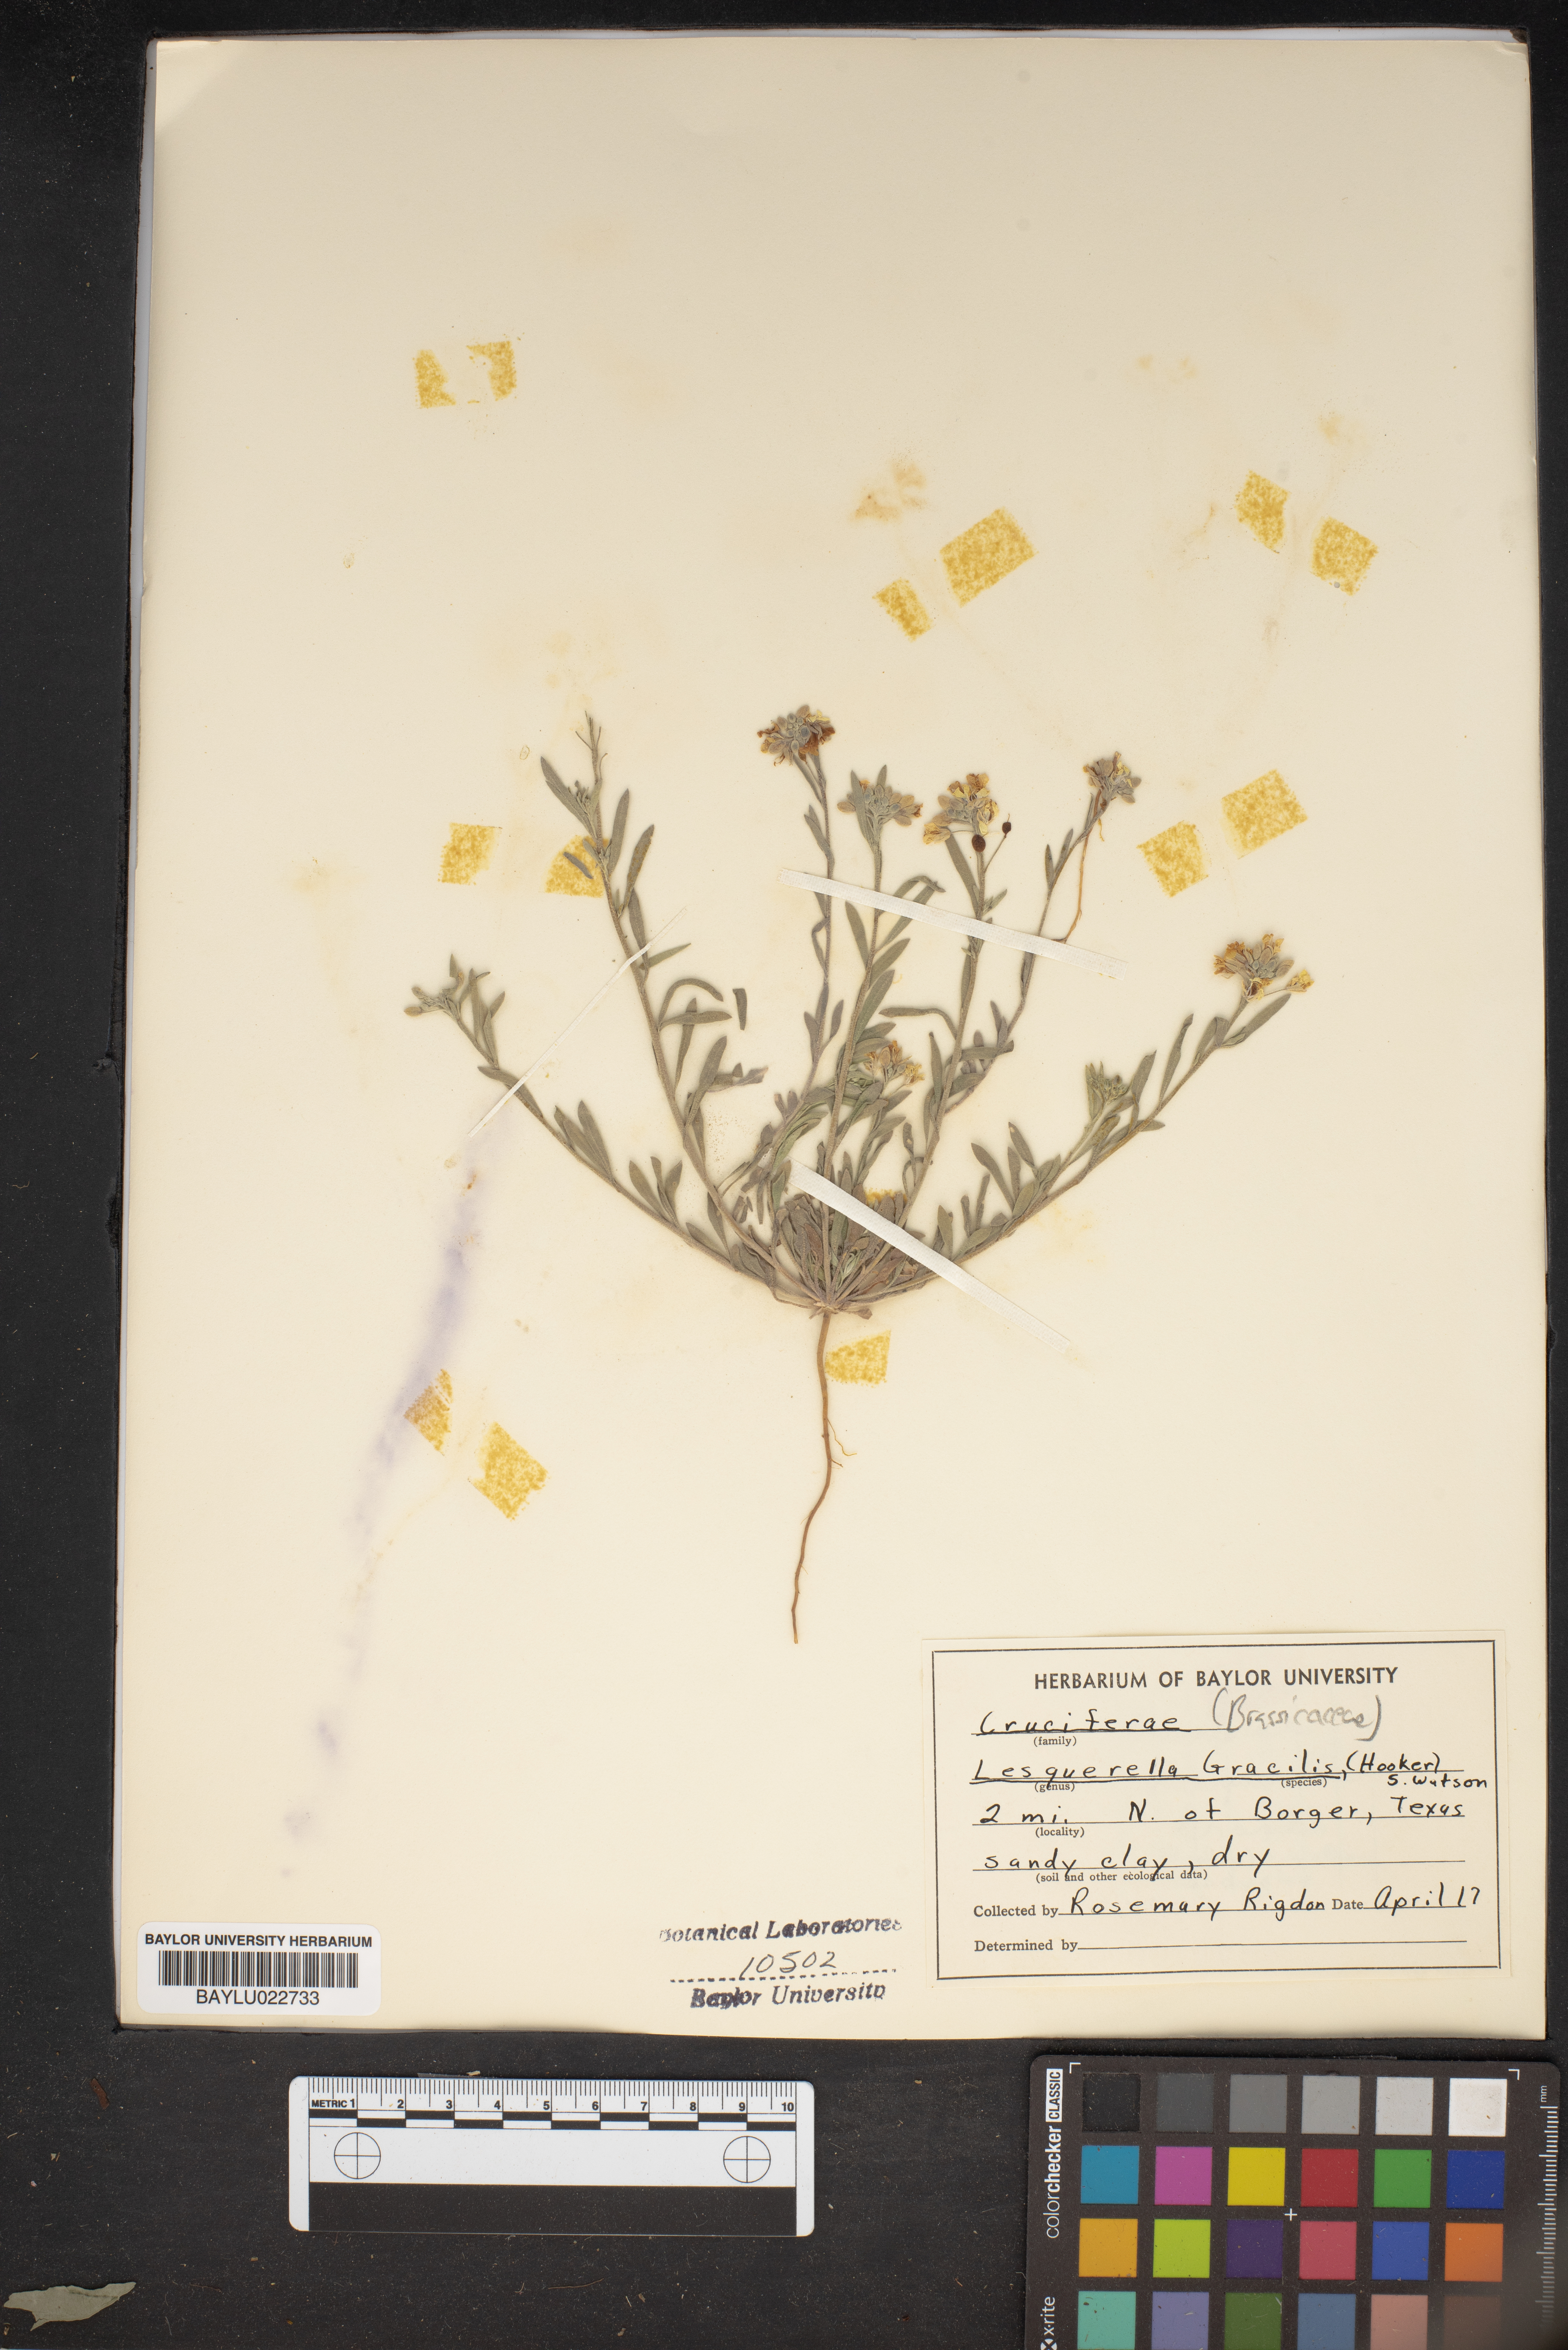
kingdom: Plantae
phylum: Tracheophyta
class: Magnoliopsida
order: Brassicales
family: Brassicaceae
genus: Physaria
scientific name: Physaria gracilis
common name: Spreading bladderpod
